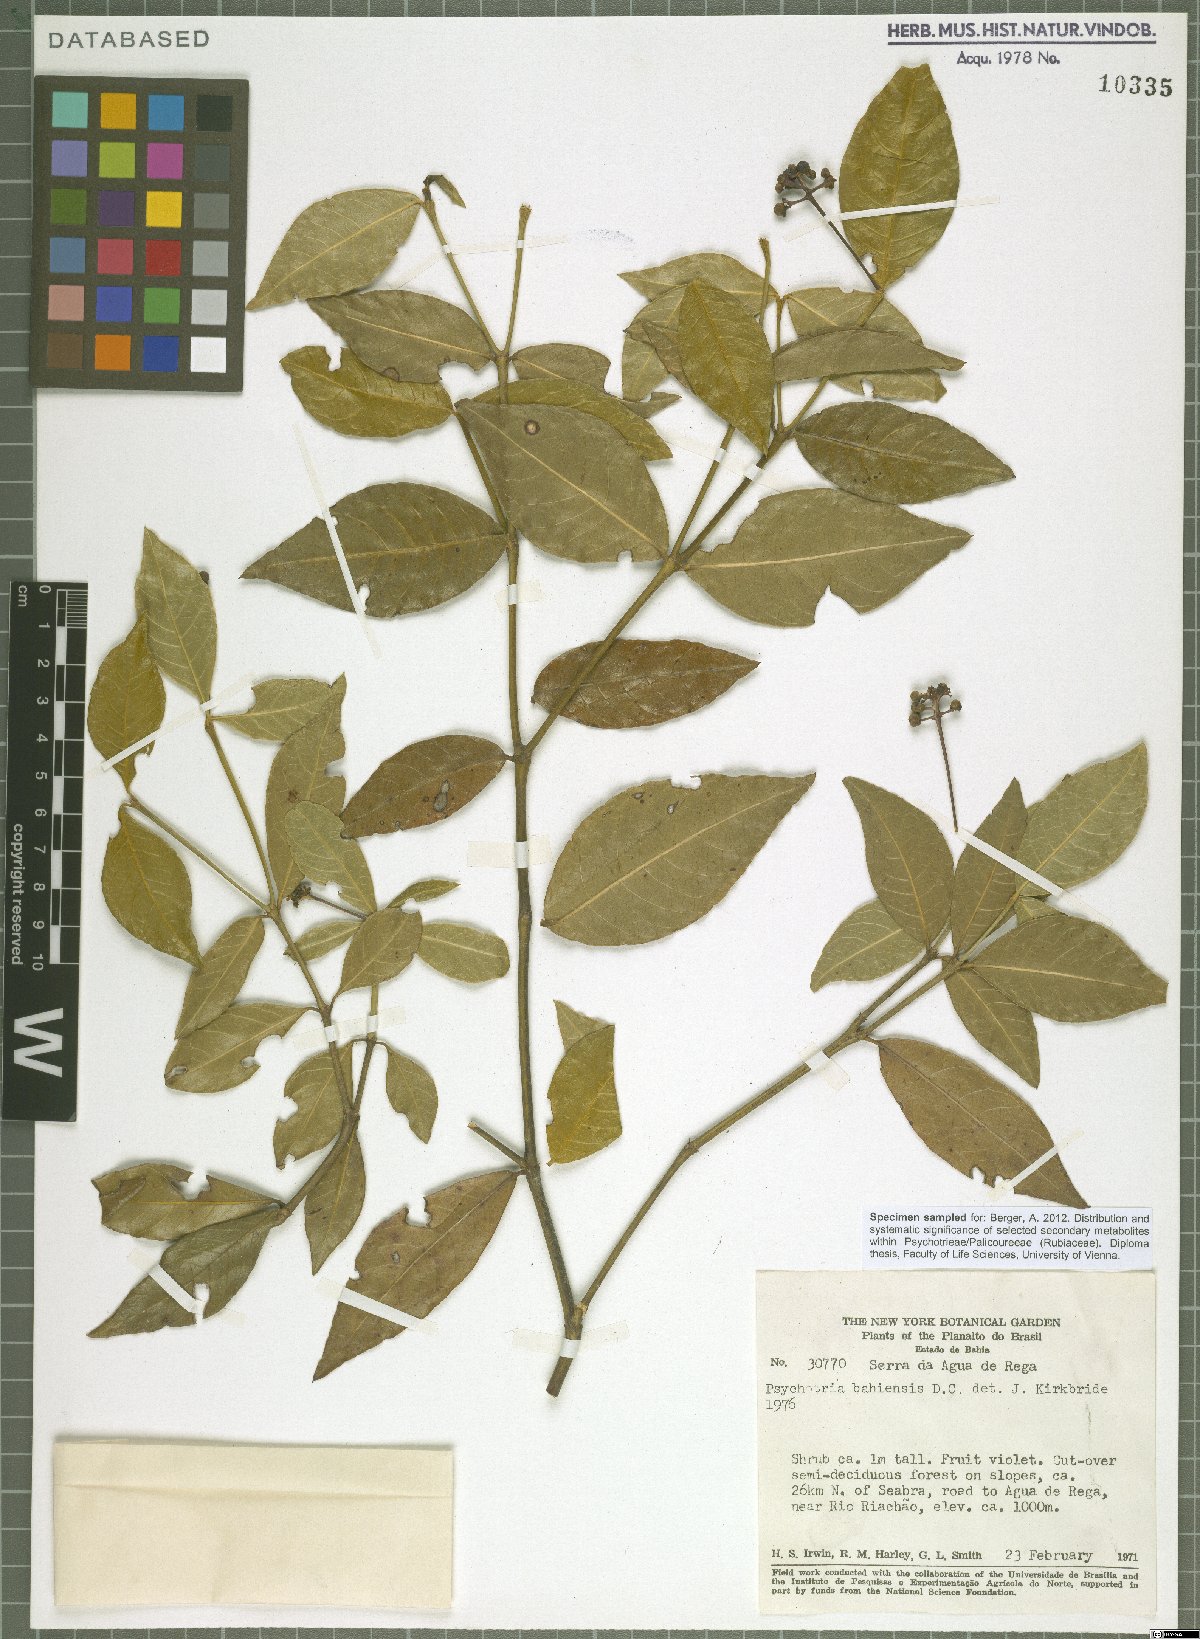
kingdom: Plantae
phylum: Tracheophyta
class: Magnoliopsida
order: Gentianales
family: Rubiaceae
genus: Psychotria
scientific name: Psychotria bahiensis
